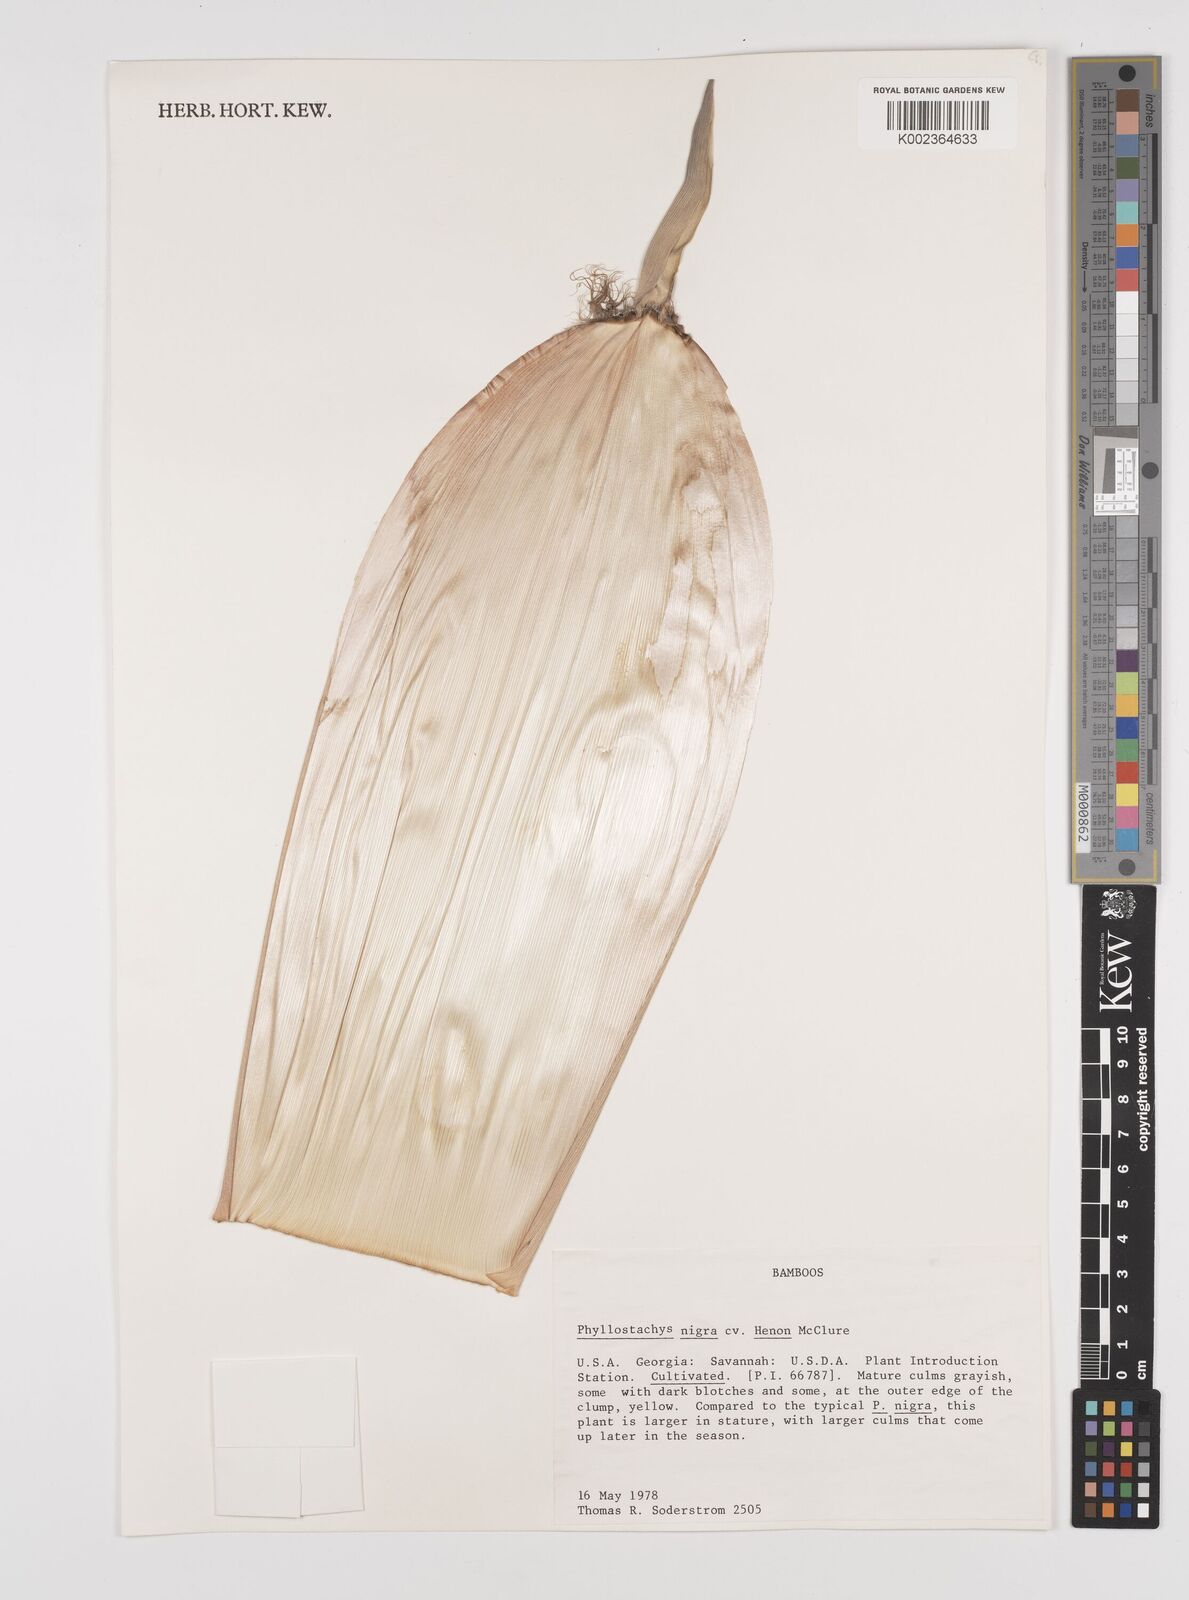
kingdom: Plantae
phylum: Tracheophyta
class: Liliopsida
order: Poales
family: Poaceae
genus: Phyllostachys
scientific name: Phyllostachys nigra
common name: Black bamboo
